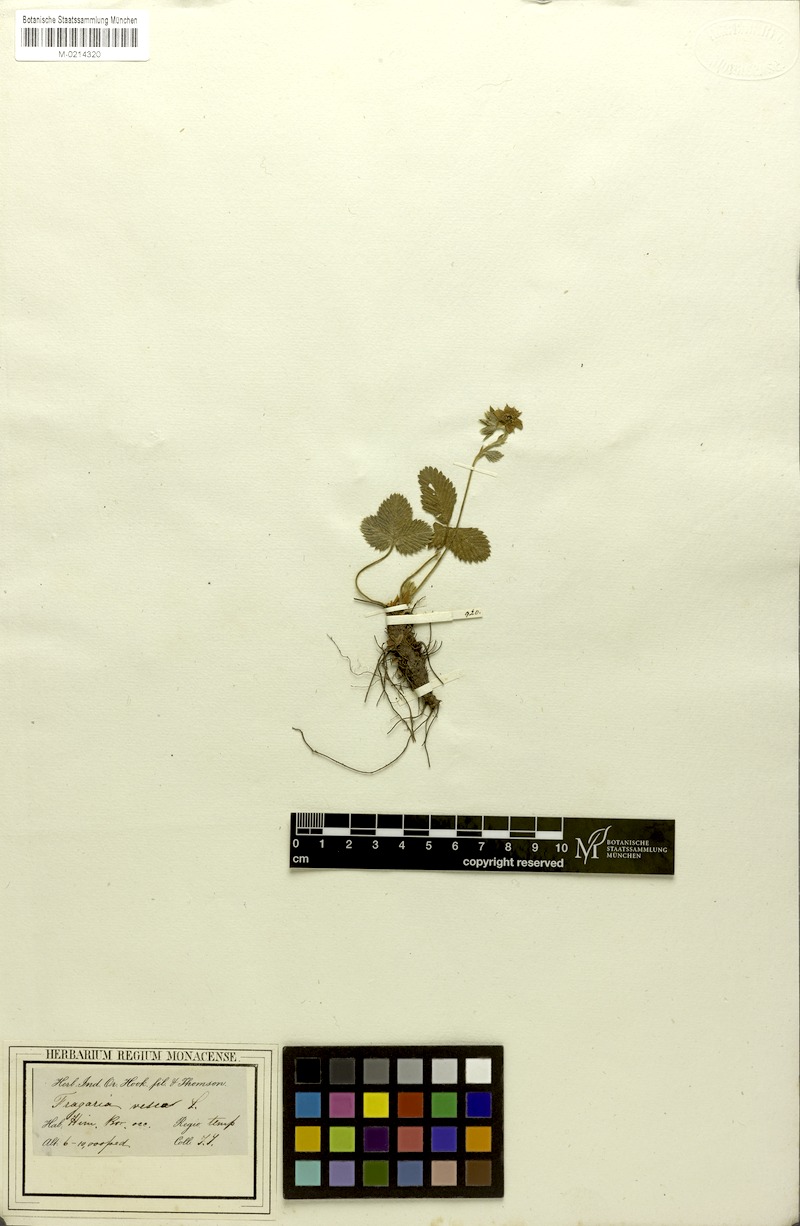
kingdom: Plantae
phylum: Tracheophyta
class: Magnoliopsida
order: Rosales
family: Rosaceae
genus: Fragaria
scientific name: Fragaria bucharica
